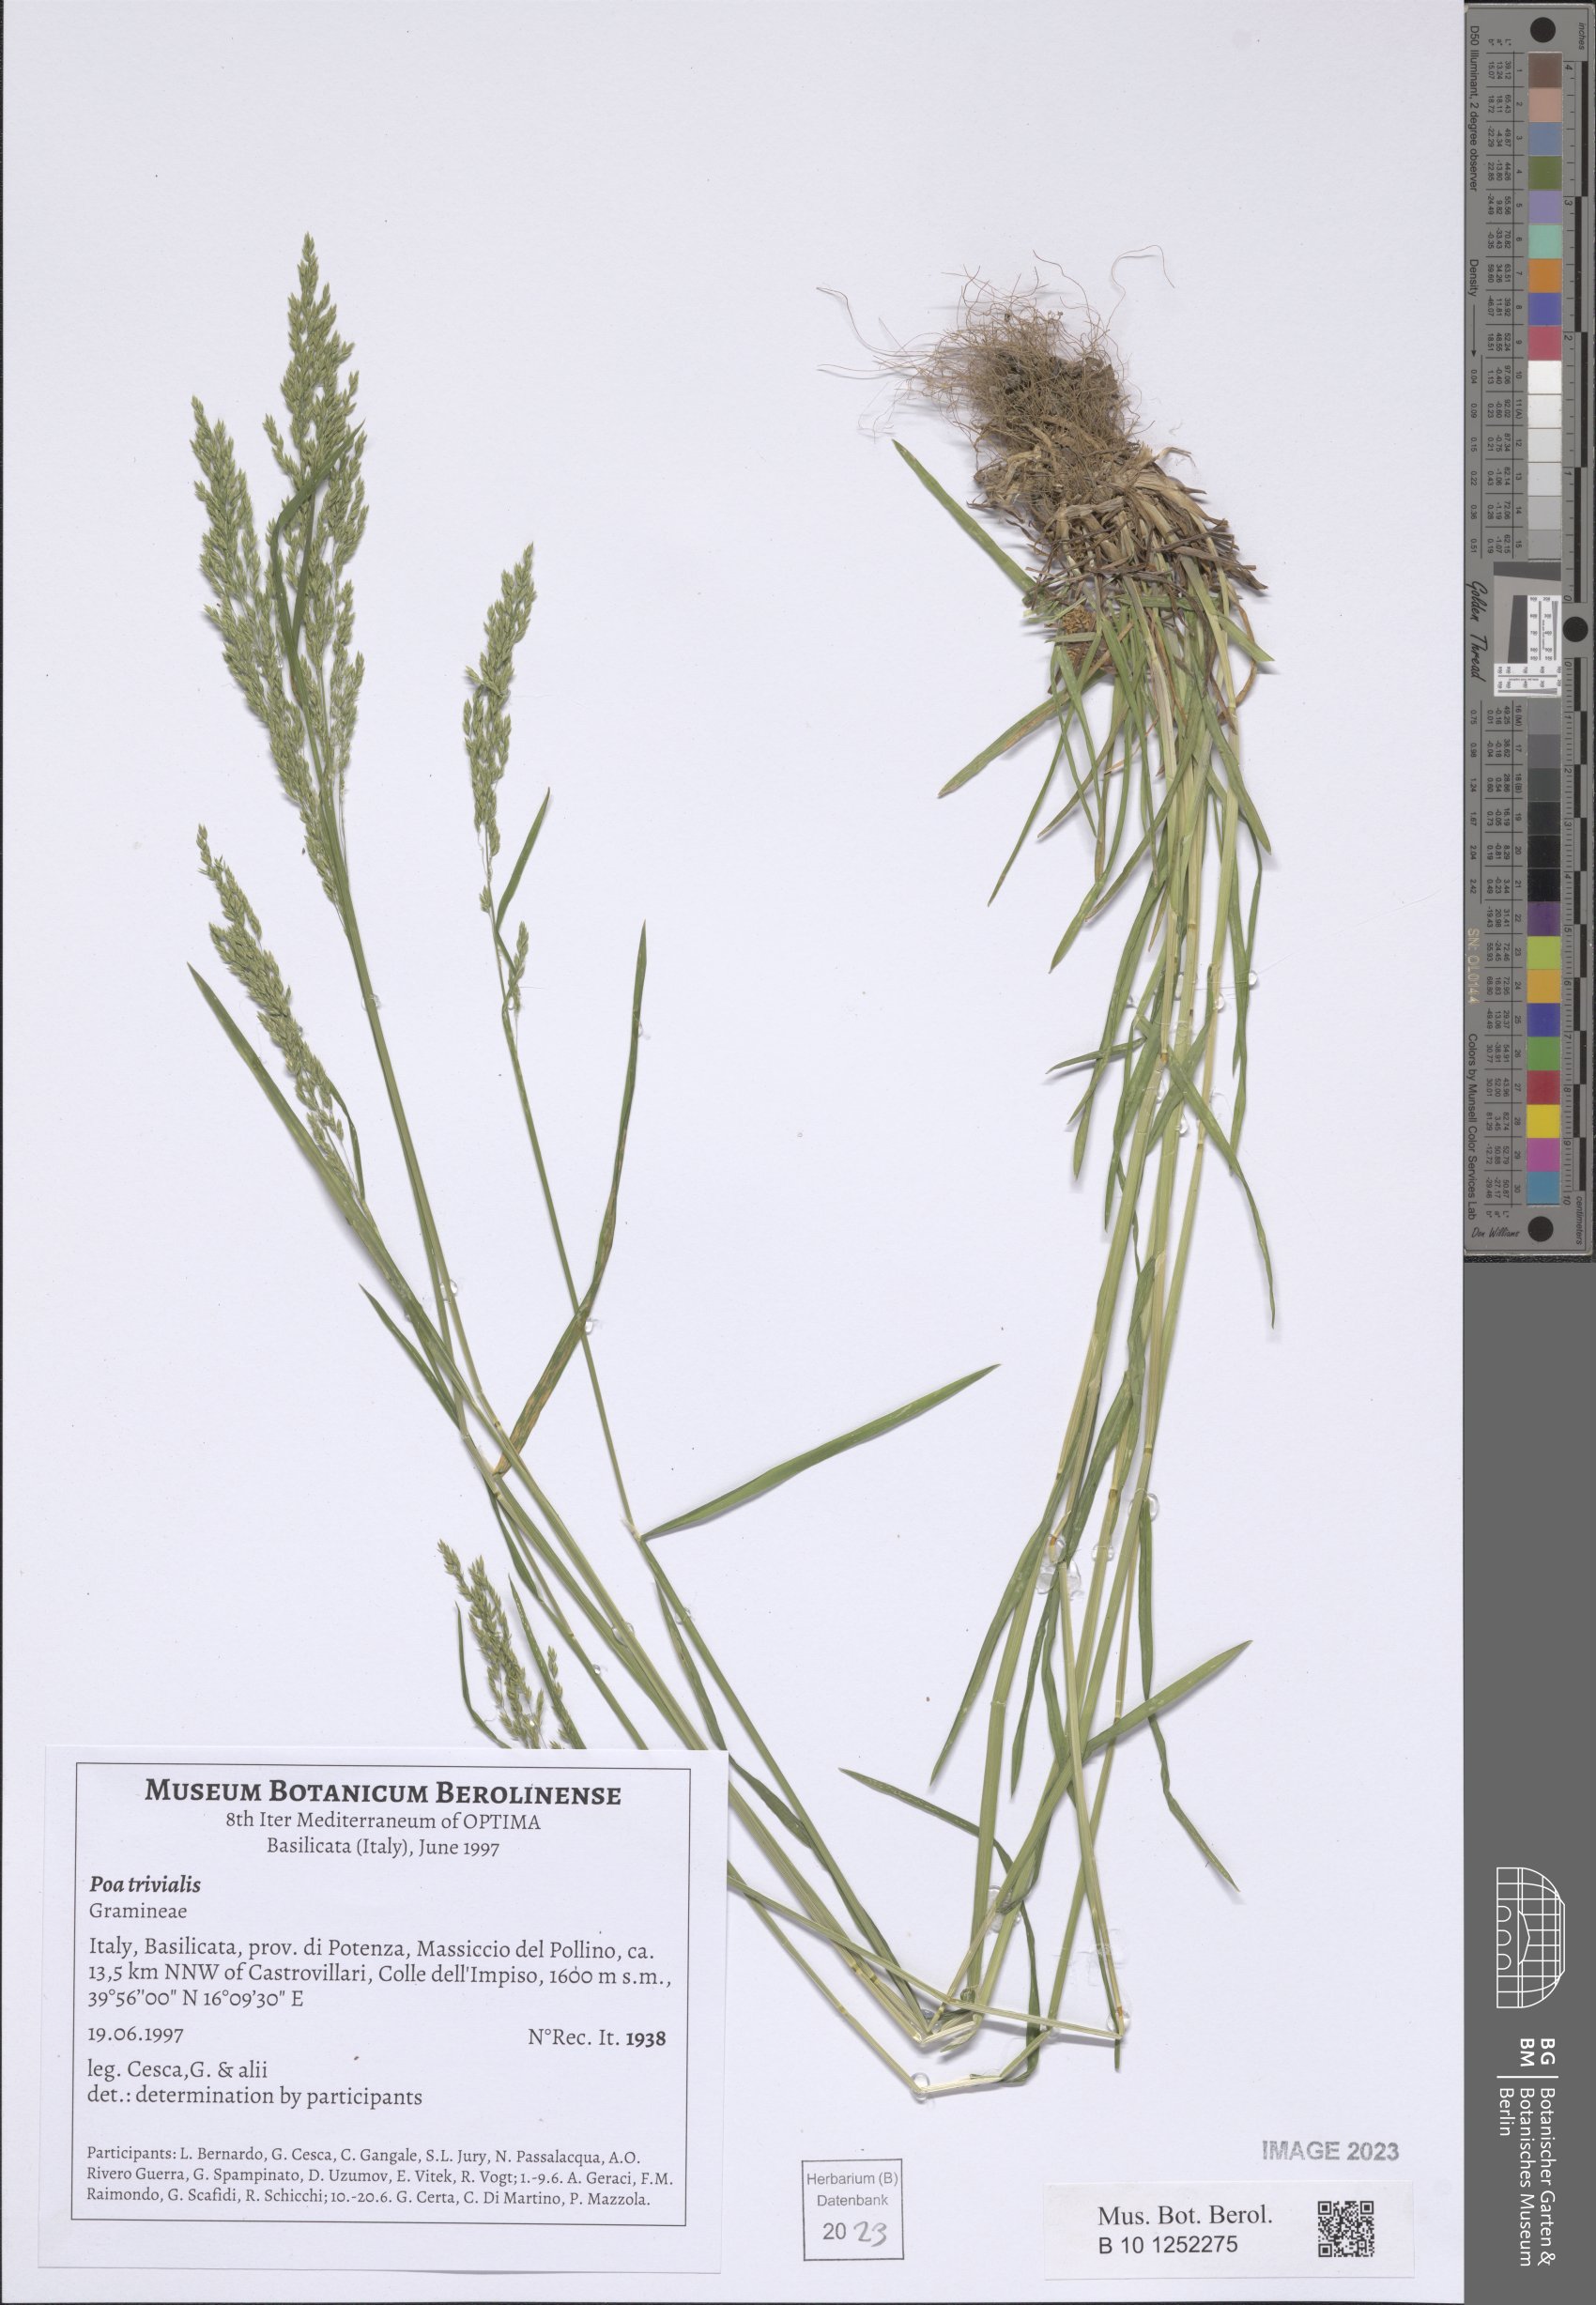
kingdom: Plantae
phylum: Tracheophyta
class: Liliopsida
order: Poales
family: Poaceae
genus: Poa
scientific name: Poa trivialis
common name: Rough bluegrass
